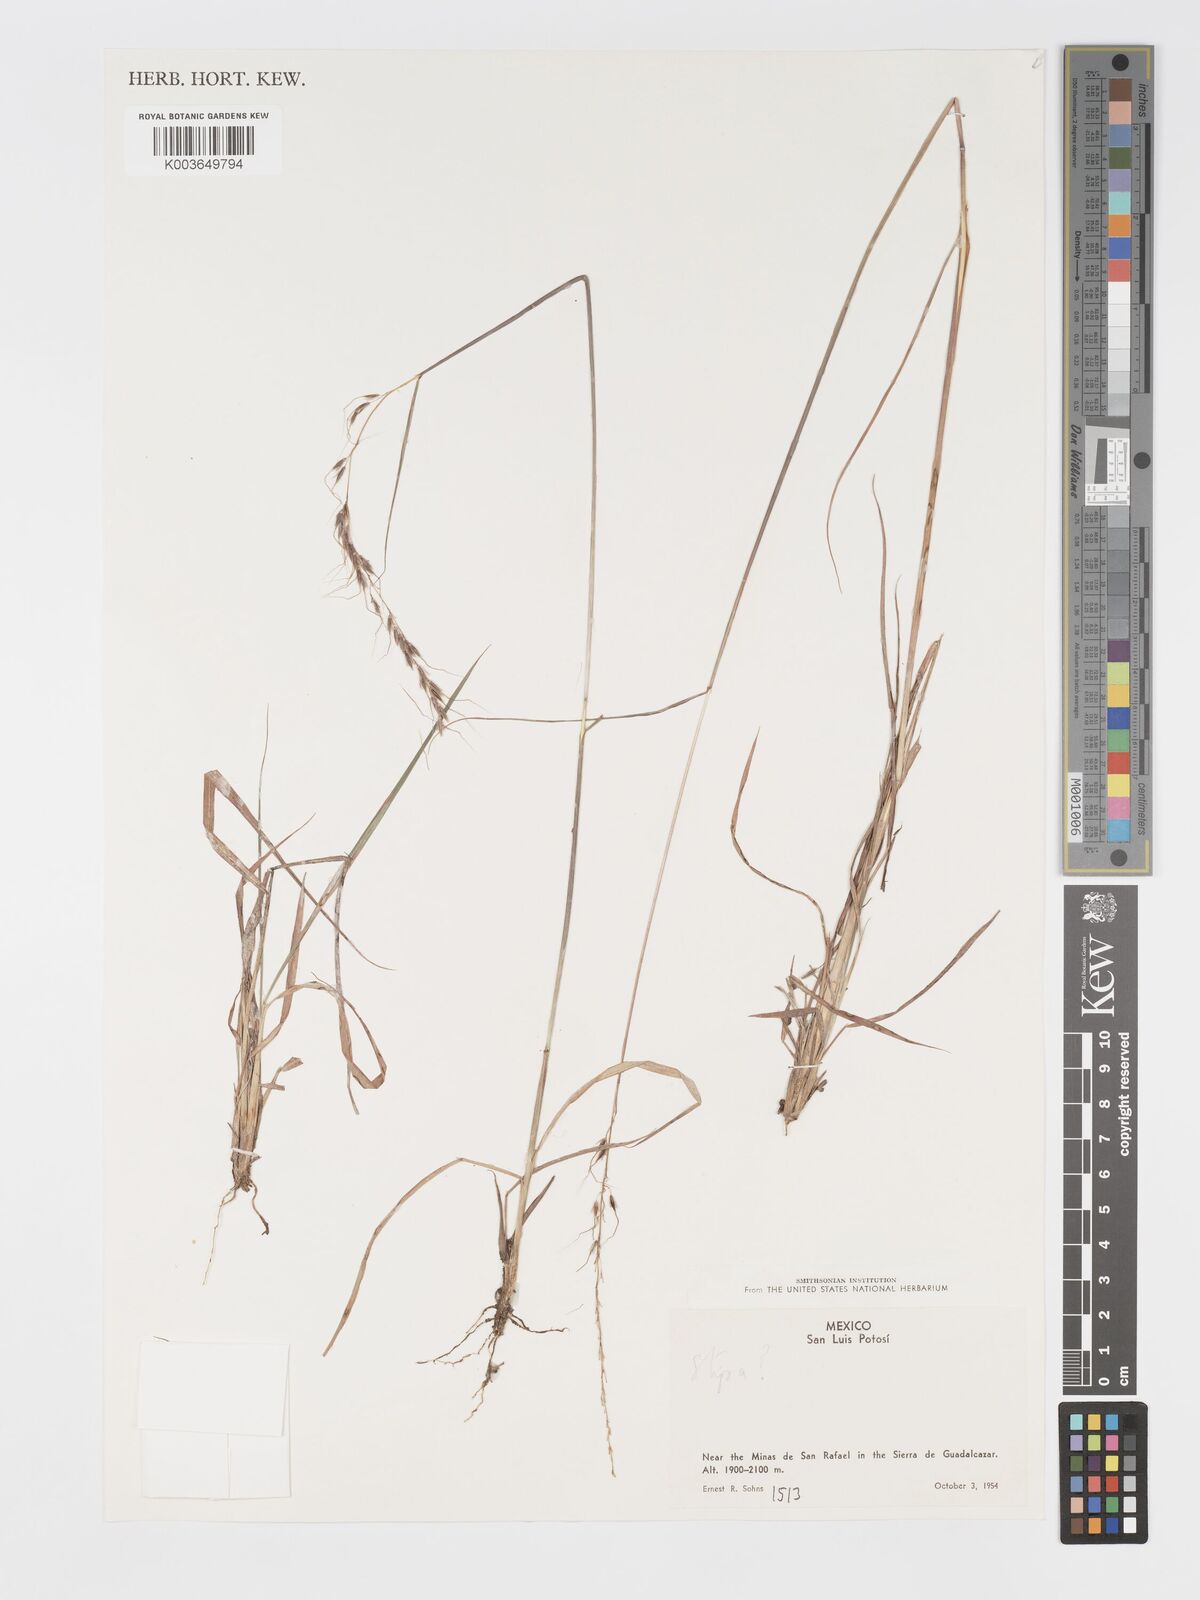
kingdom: Plantae
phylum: Tracheophyta
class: Liliopsida
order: Poales
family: Poaceae
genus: Sorghastrum
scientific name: Sorghastrum
